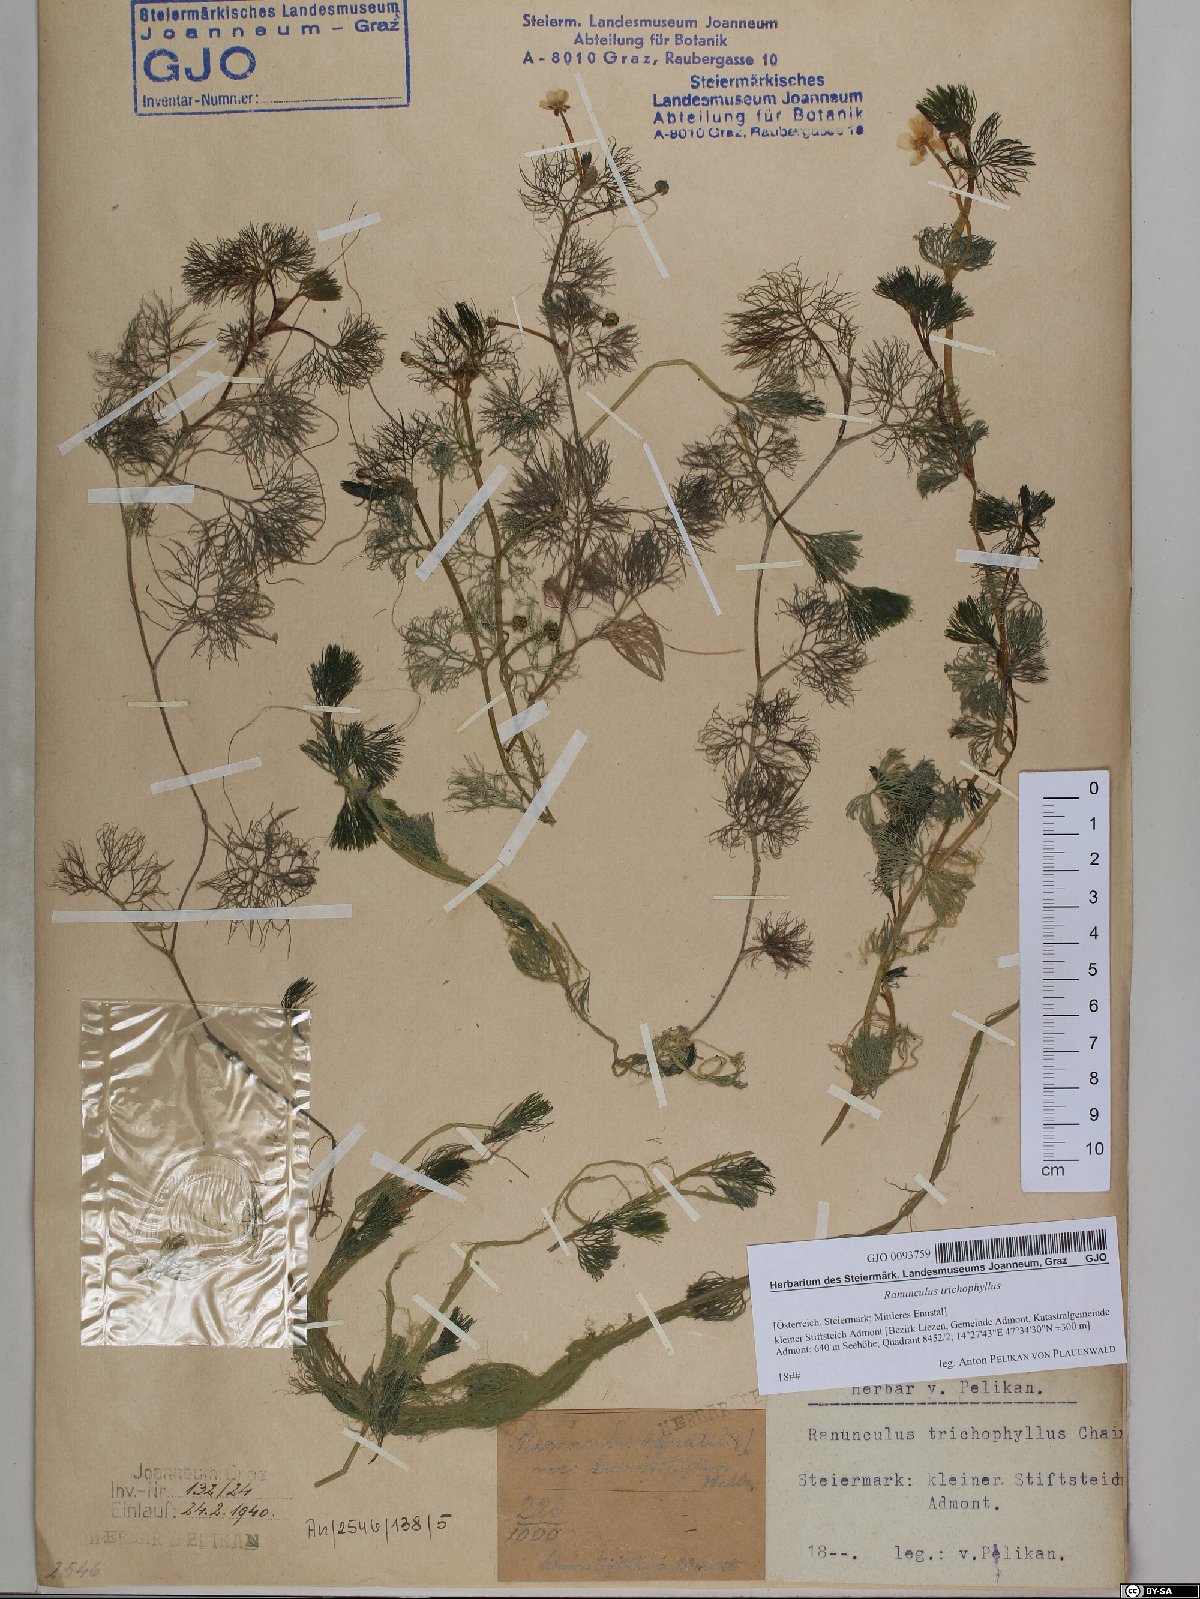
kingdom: Plantae
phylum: Tracheophyta
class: Magnoliopsida
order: Ranunculales
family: Ranunculaceae
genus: Ranunculus
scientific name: Ranunculus trichophyllus
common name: Thread-leaved water-crowfoot
